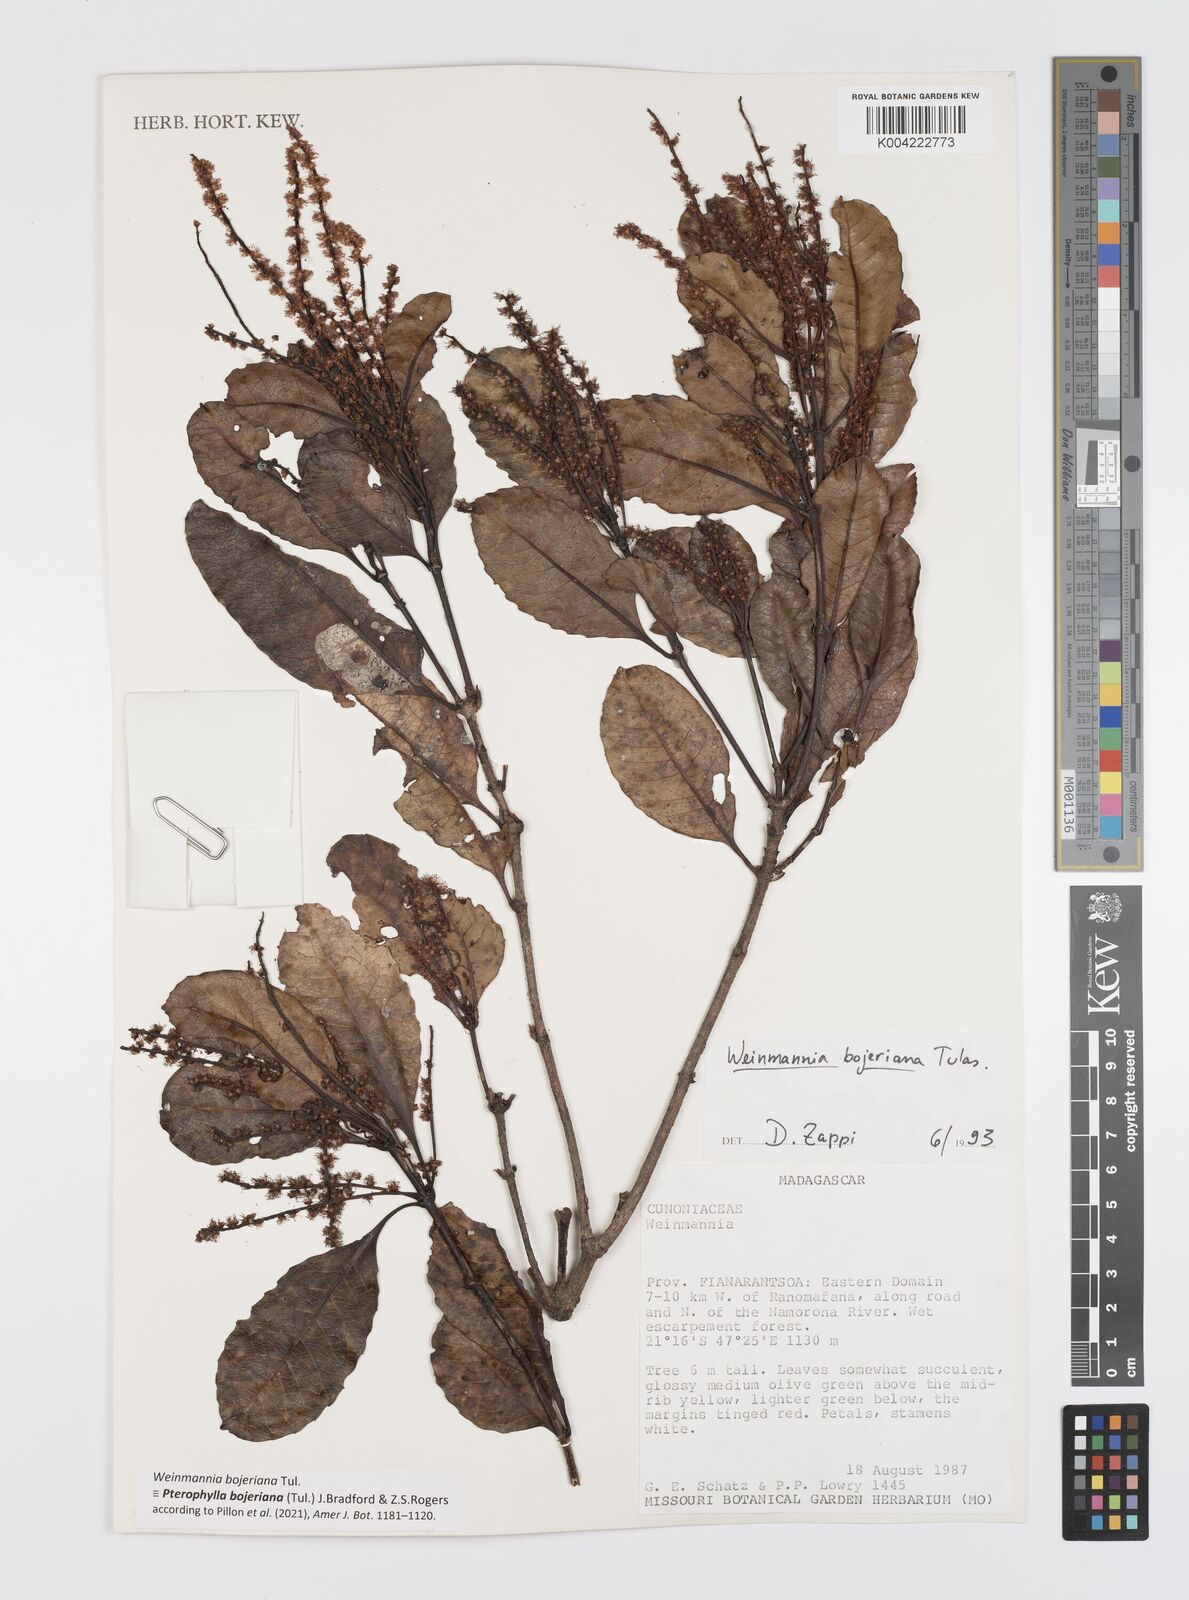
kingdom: Plantae
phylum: Tracheophyta
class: Magnoliopsida
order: Oxalidales
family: Cunoniaceae
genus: Pterophylla
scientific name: Pterophylla
